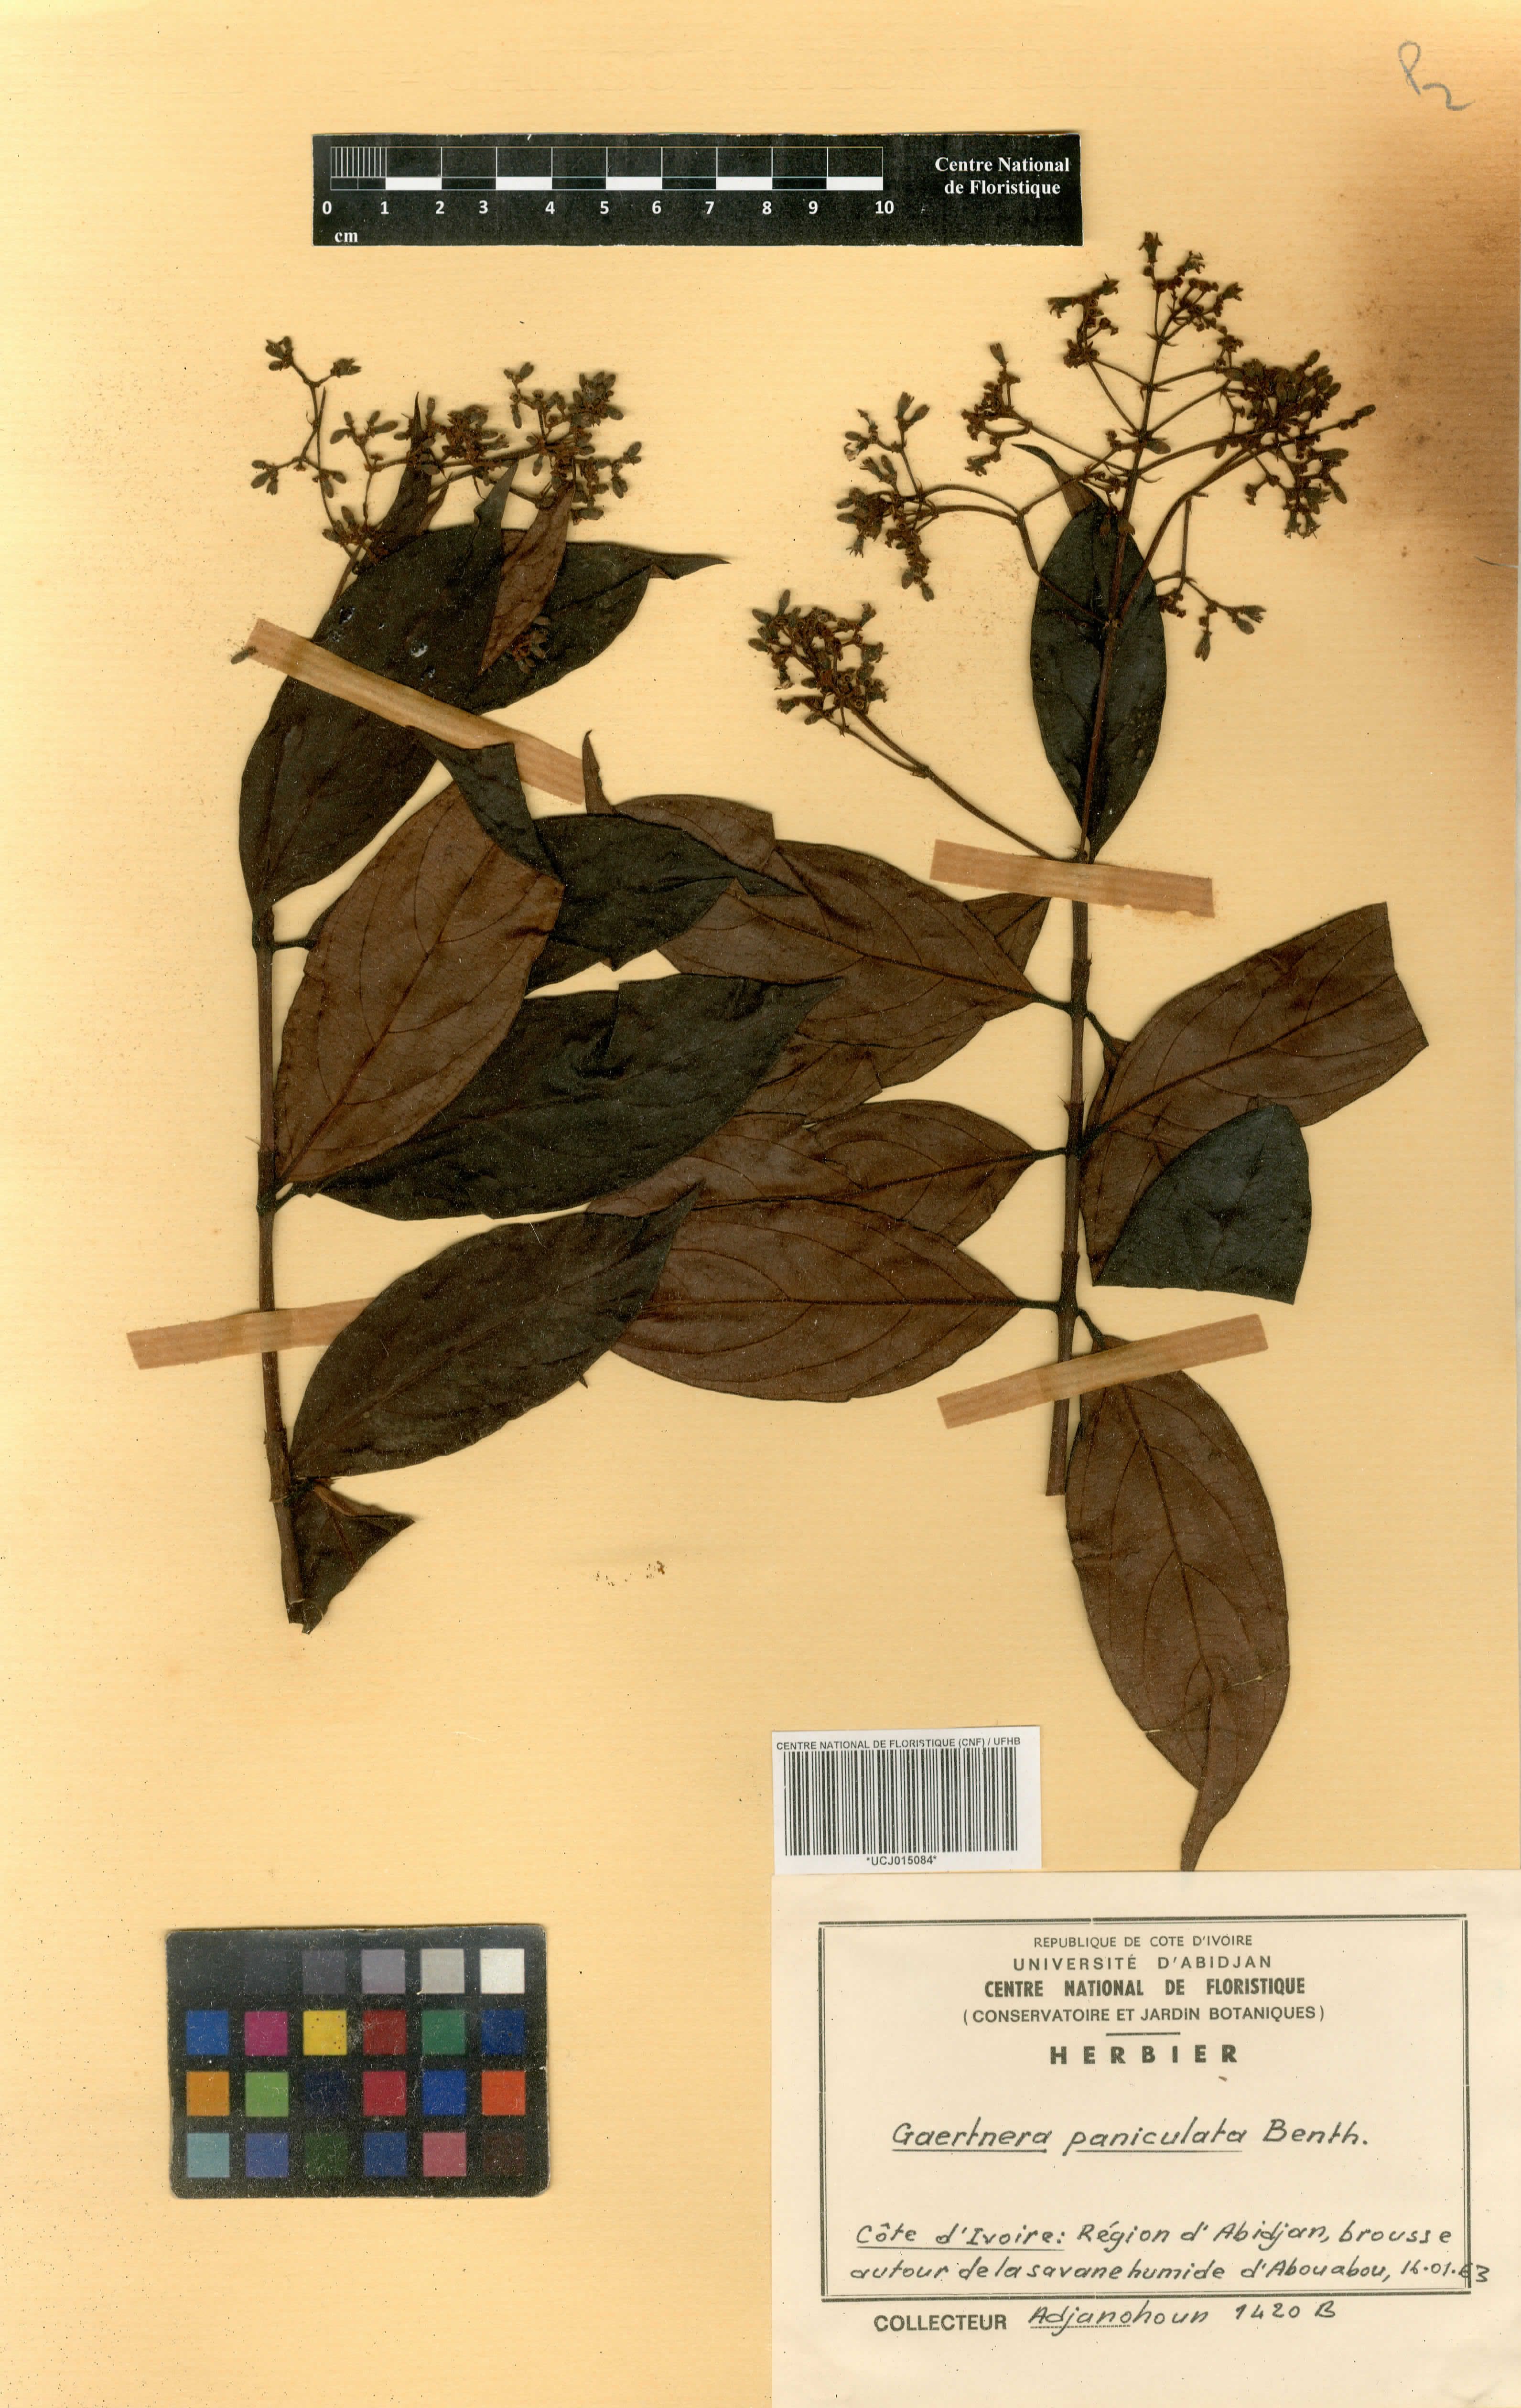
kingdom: Plantae
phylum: Tracheophyta
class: Magnoliopsida
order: Gentianales
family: Rubiaceae
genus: Gaertnera
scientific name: Gaertnera paniculata
